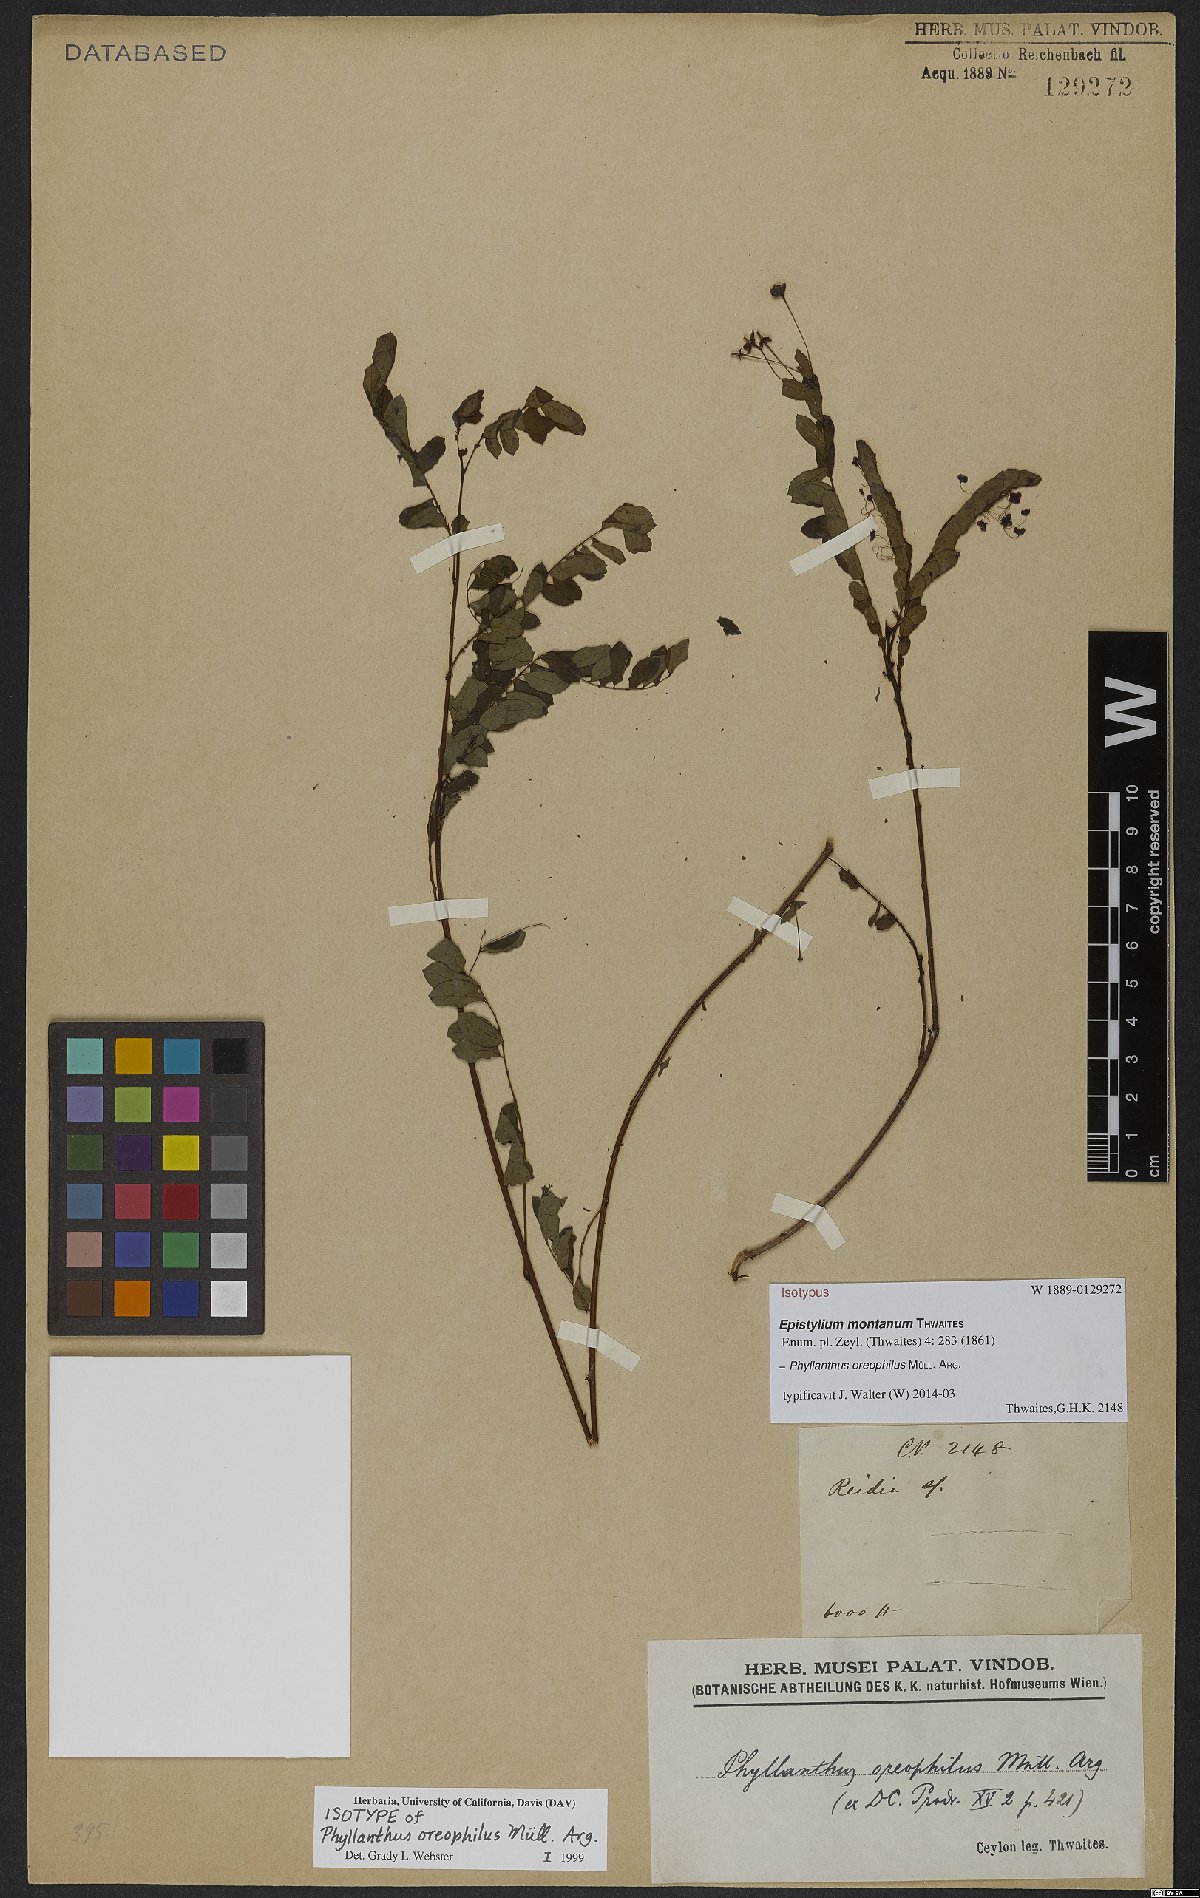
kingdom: Plantae
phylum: Tracheophyta
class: Magnoliopsida
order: Malpighiales
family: Phyllanthaceae
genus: Phyllanthus
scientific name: Phyllanthus oreophilus
